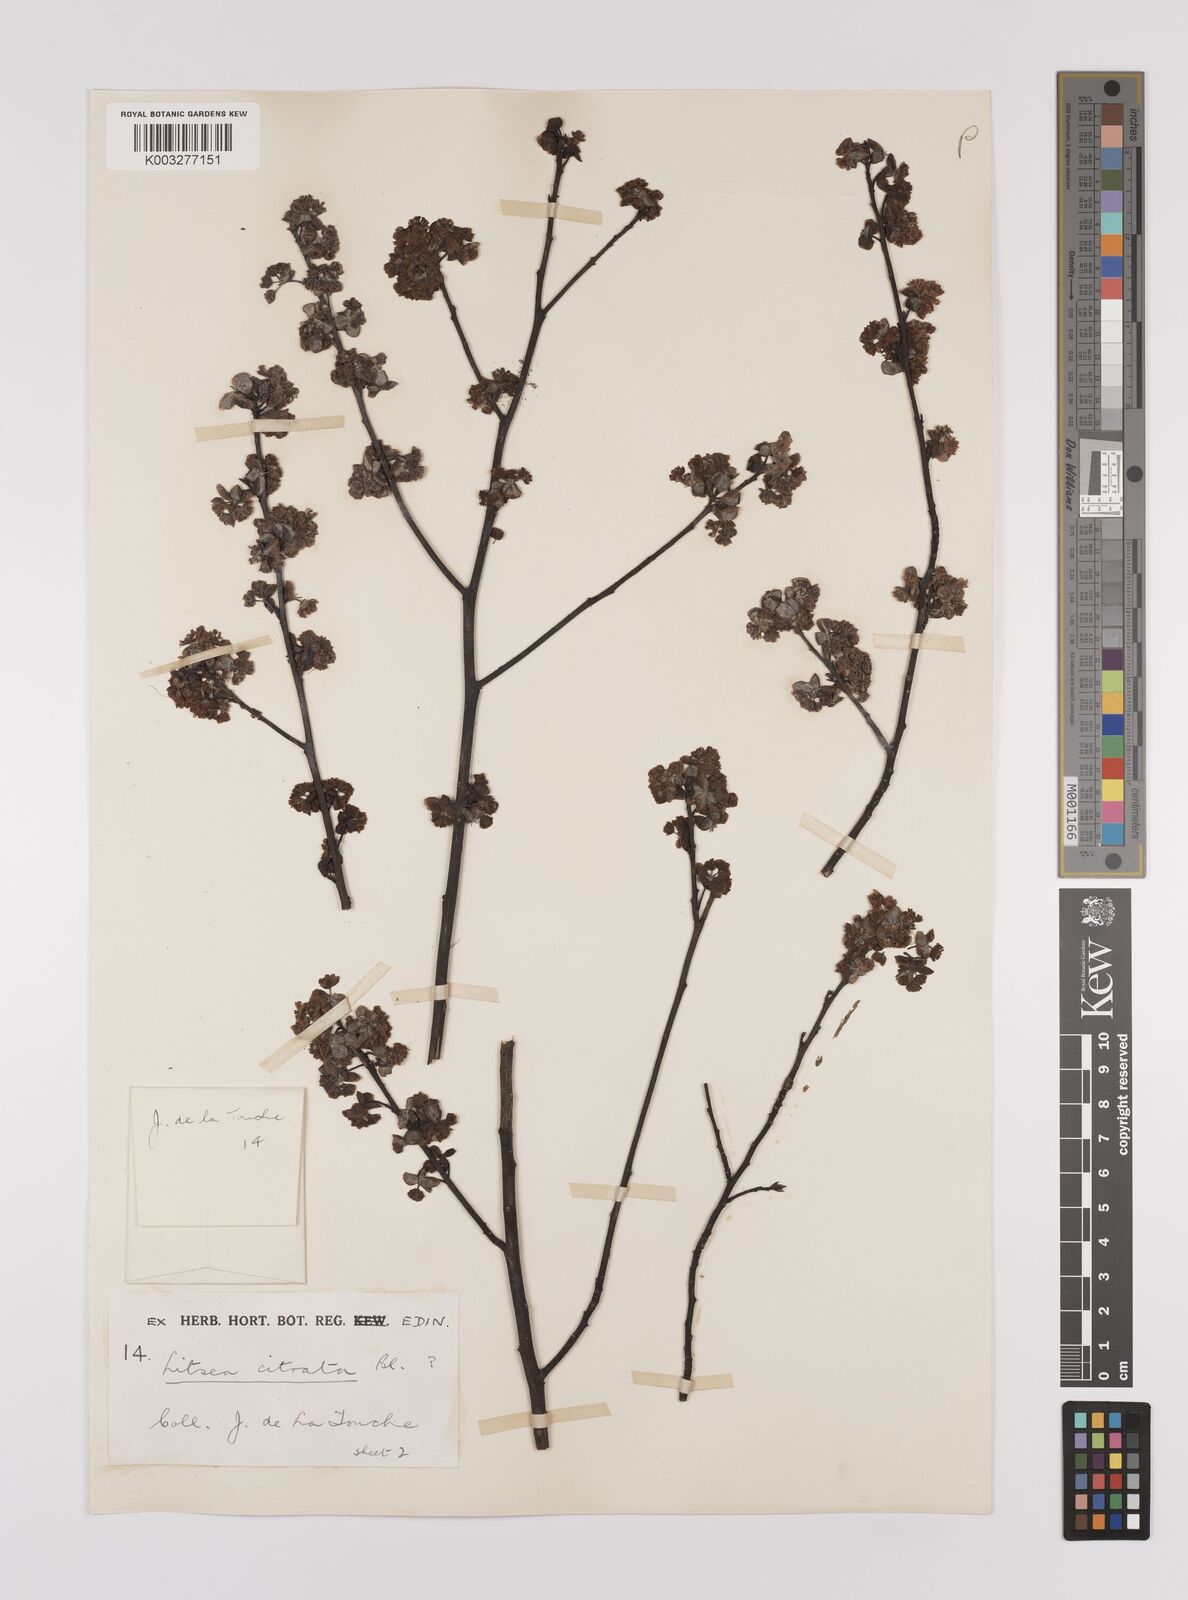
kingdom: Plantae
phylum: Tracheophyta
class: Magnoliopsida
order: Laurales
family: Lauraceae
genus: Litsea
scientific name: Litsea cubeba
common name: Mountain-pepper
